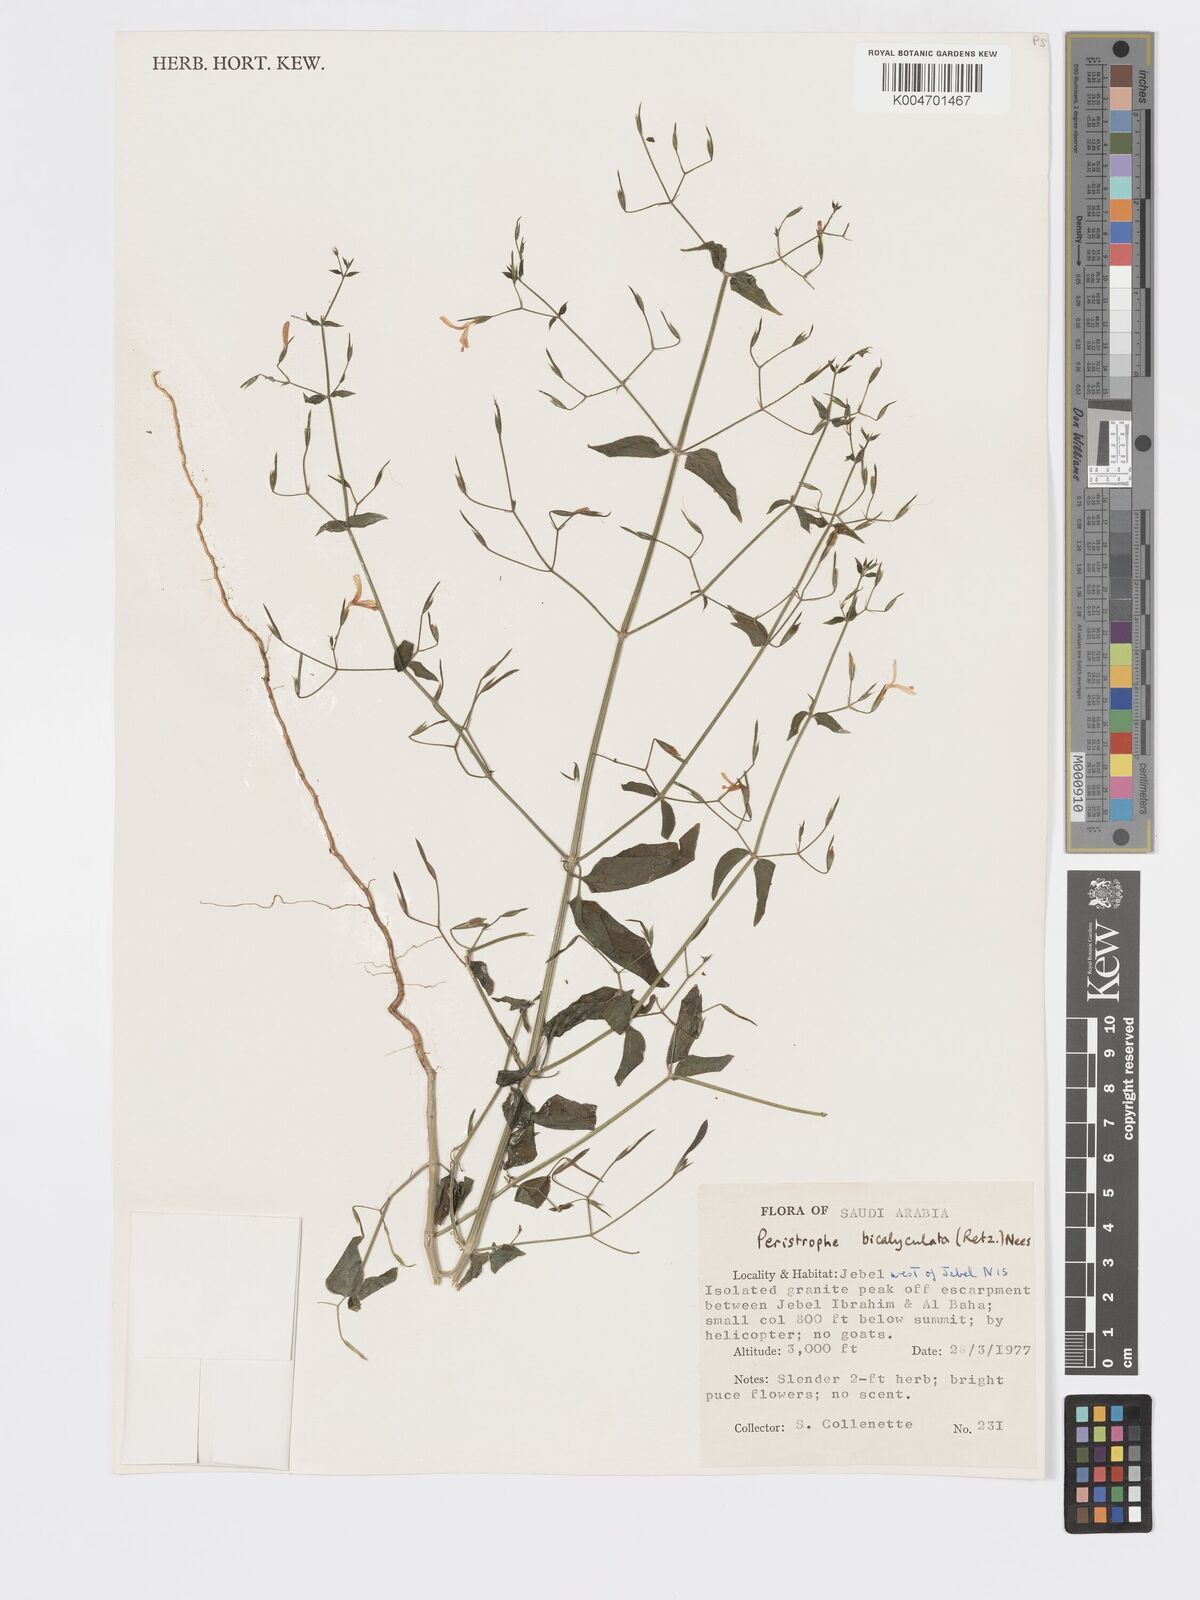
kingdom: Plantae
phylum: Tracheophyta
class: Magnoliopsida
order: Lamiales
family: Acanthaceae
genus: Dicliptera
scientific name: Dicliptera paniculata
